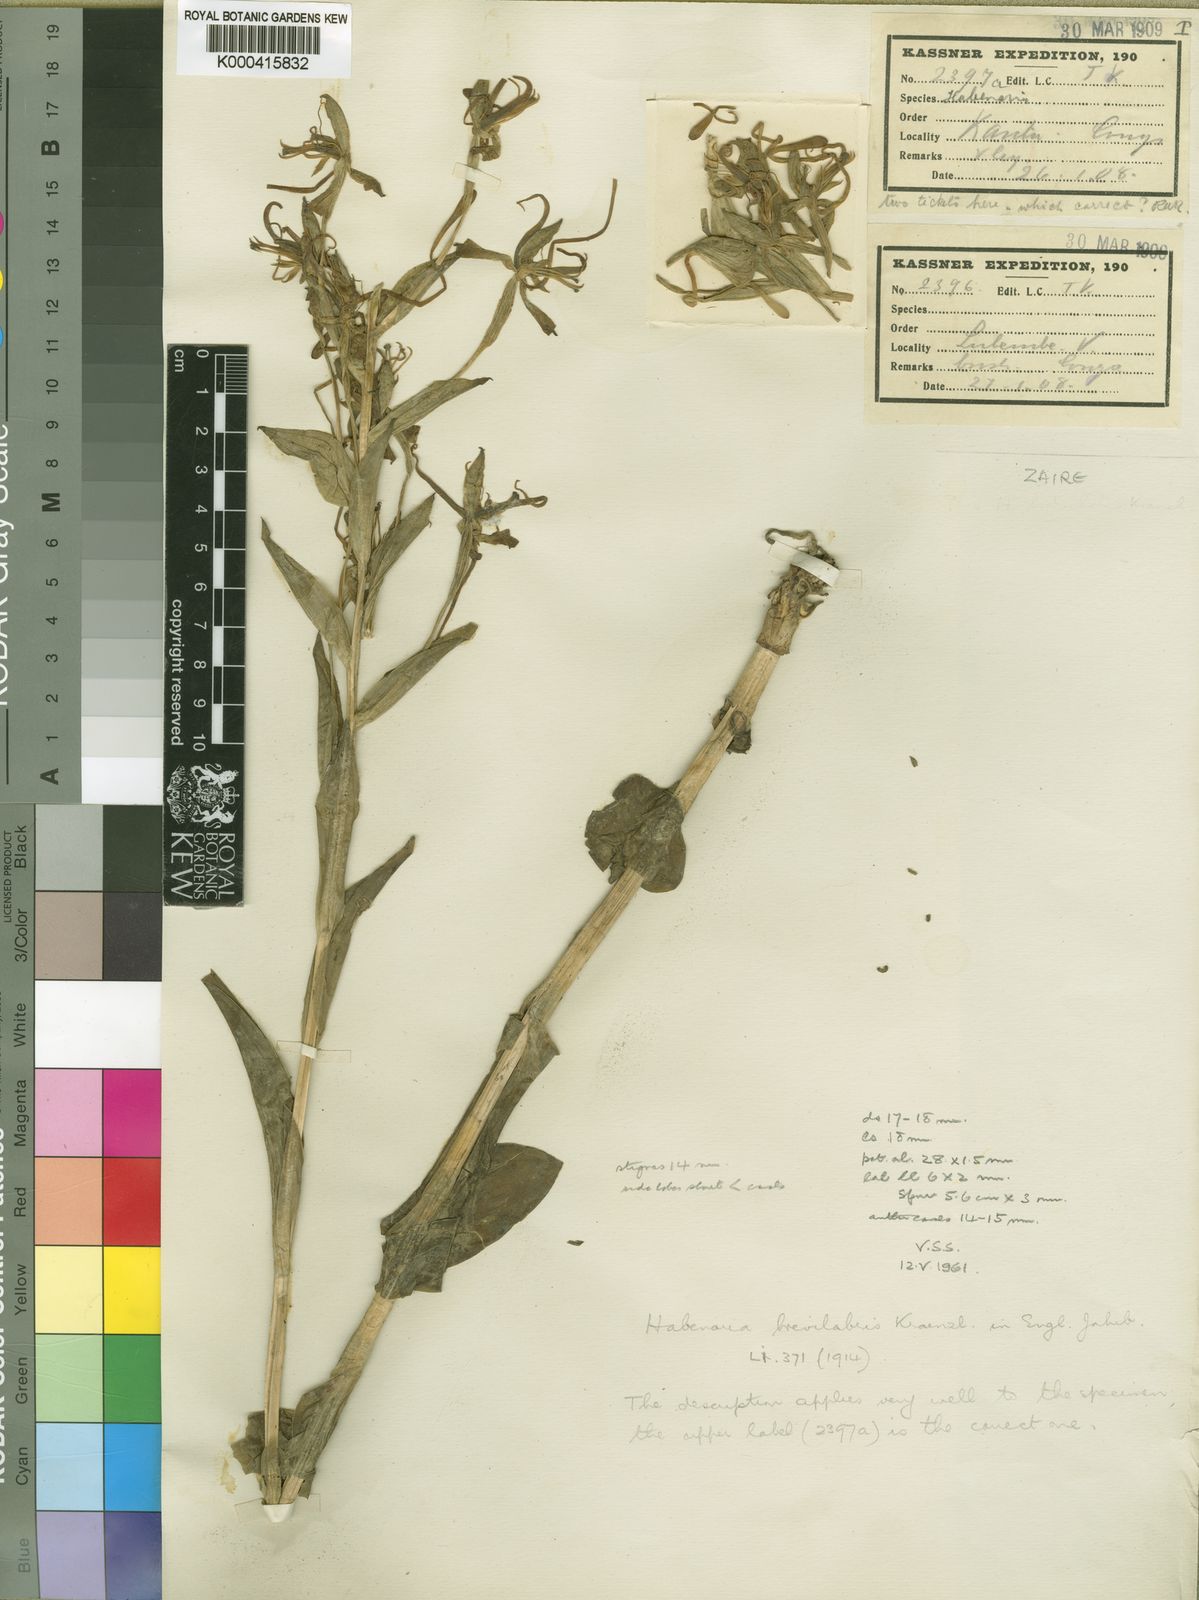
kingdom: Plantae
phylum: Tracheophyta
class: Liliopsida
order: Asparagales
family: Orchidaceae
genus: Habenaria
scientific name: Habenaria holubii
